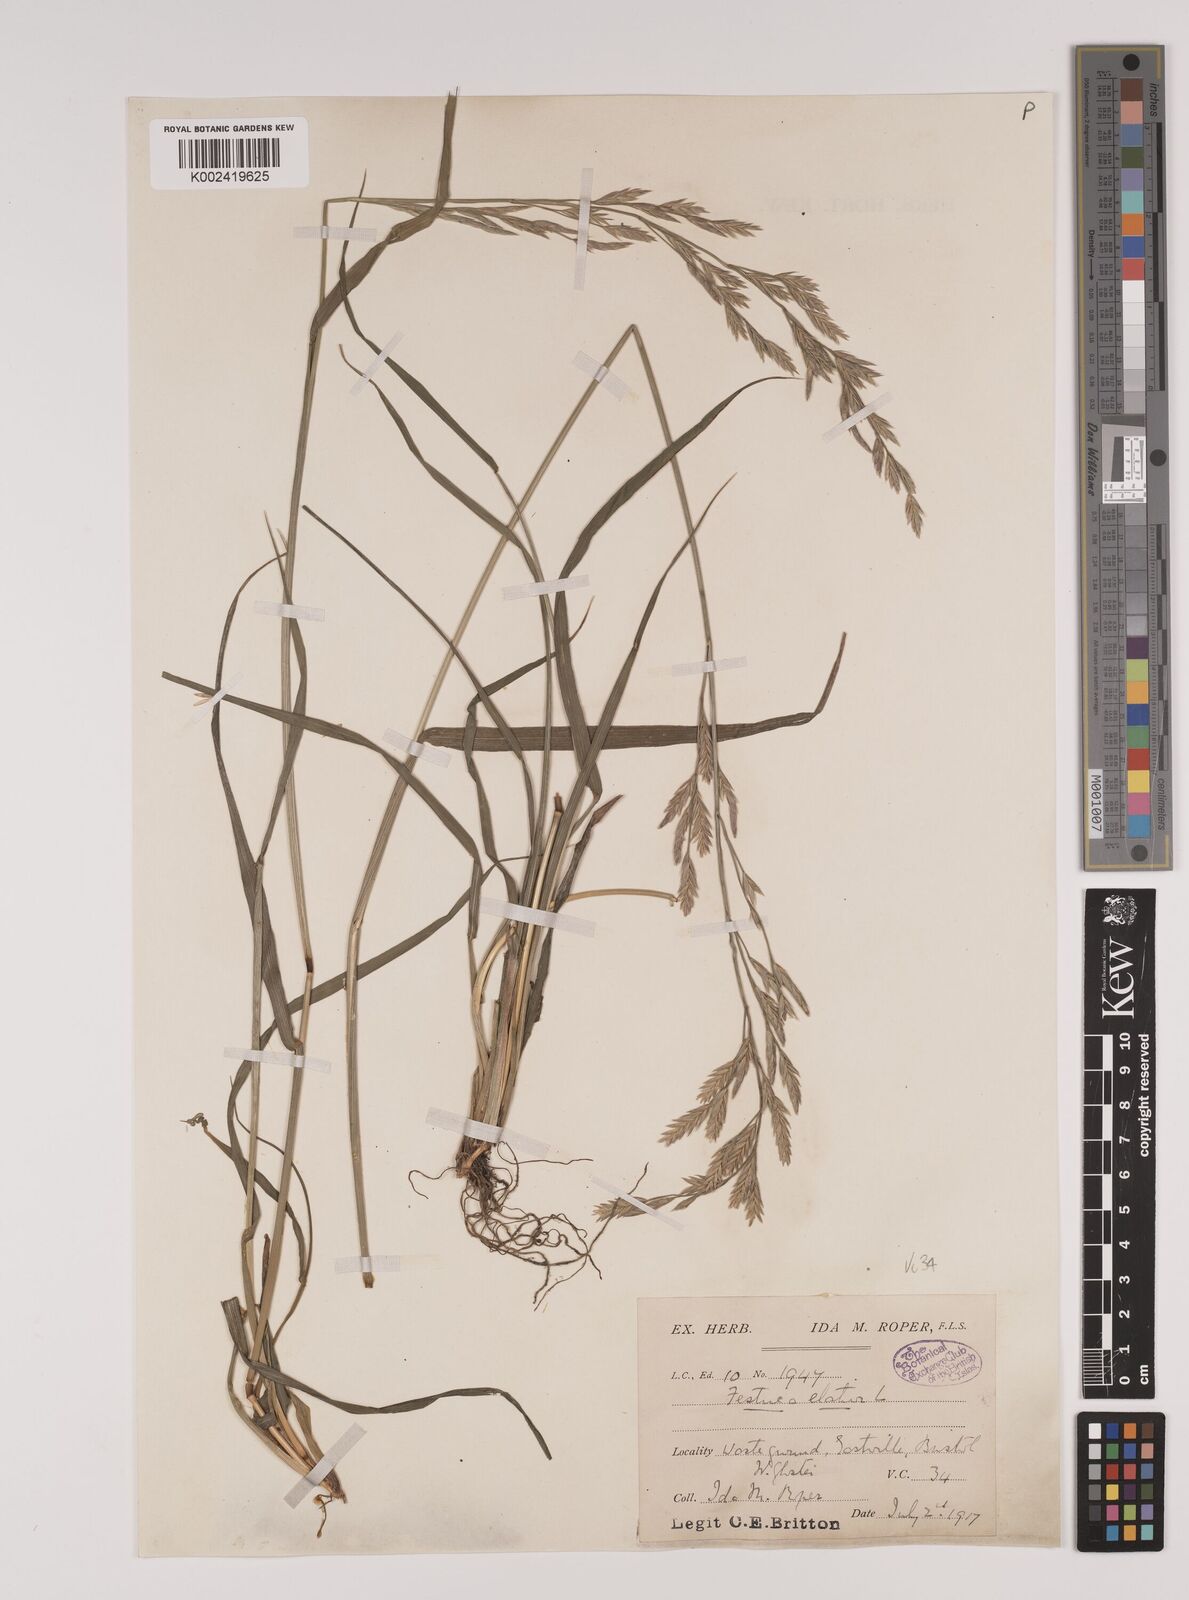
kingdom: Plantae
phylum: Tracheophyta
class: Liliopsida
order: Poales
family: Poaceae
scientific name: Poaceae
